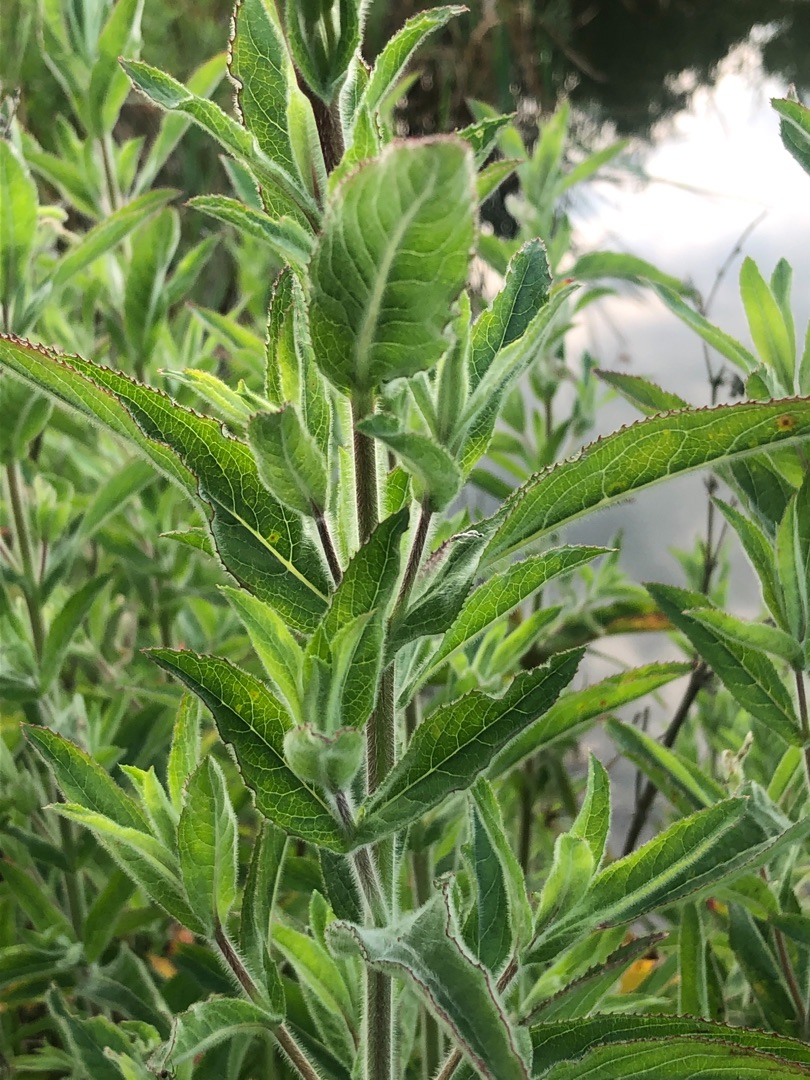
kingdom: Plantae
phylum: Tracheophyta
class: Magnoliopsida
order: Myrtales
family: Onagraceae
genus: Epilobium
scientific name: Epilobium hirsutum
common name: Lådden dueurt
